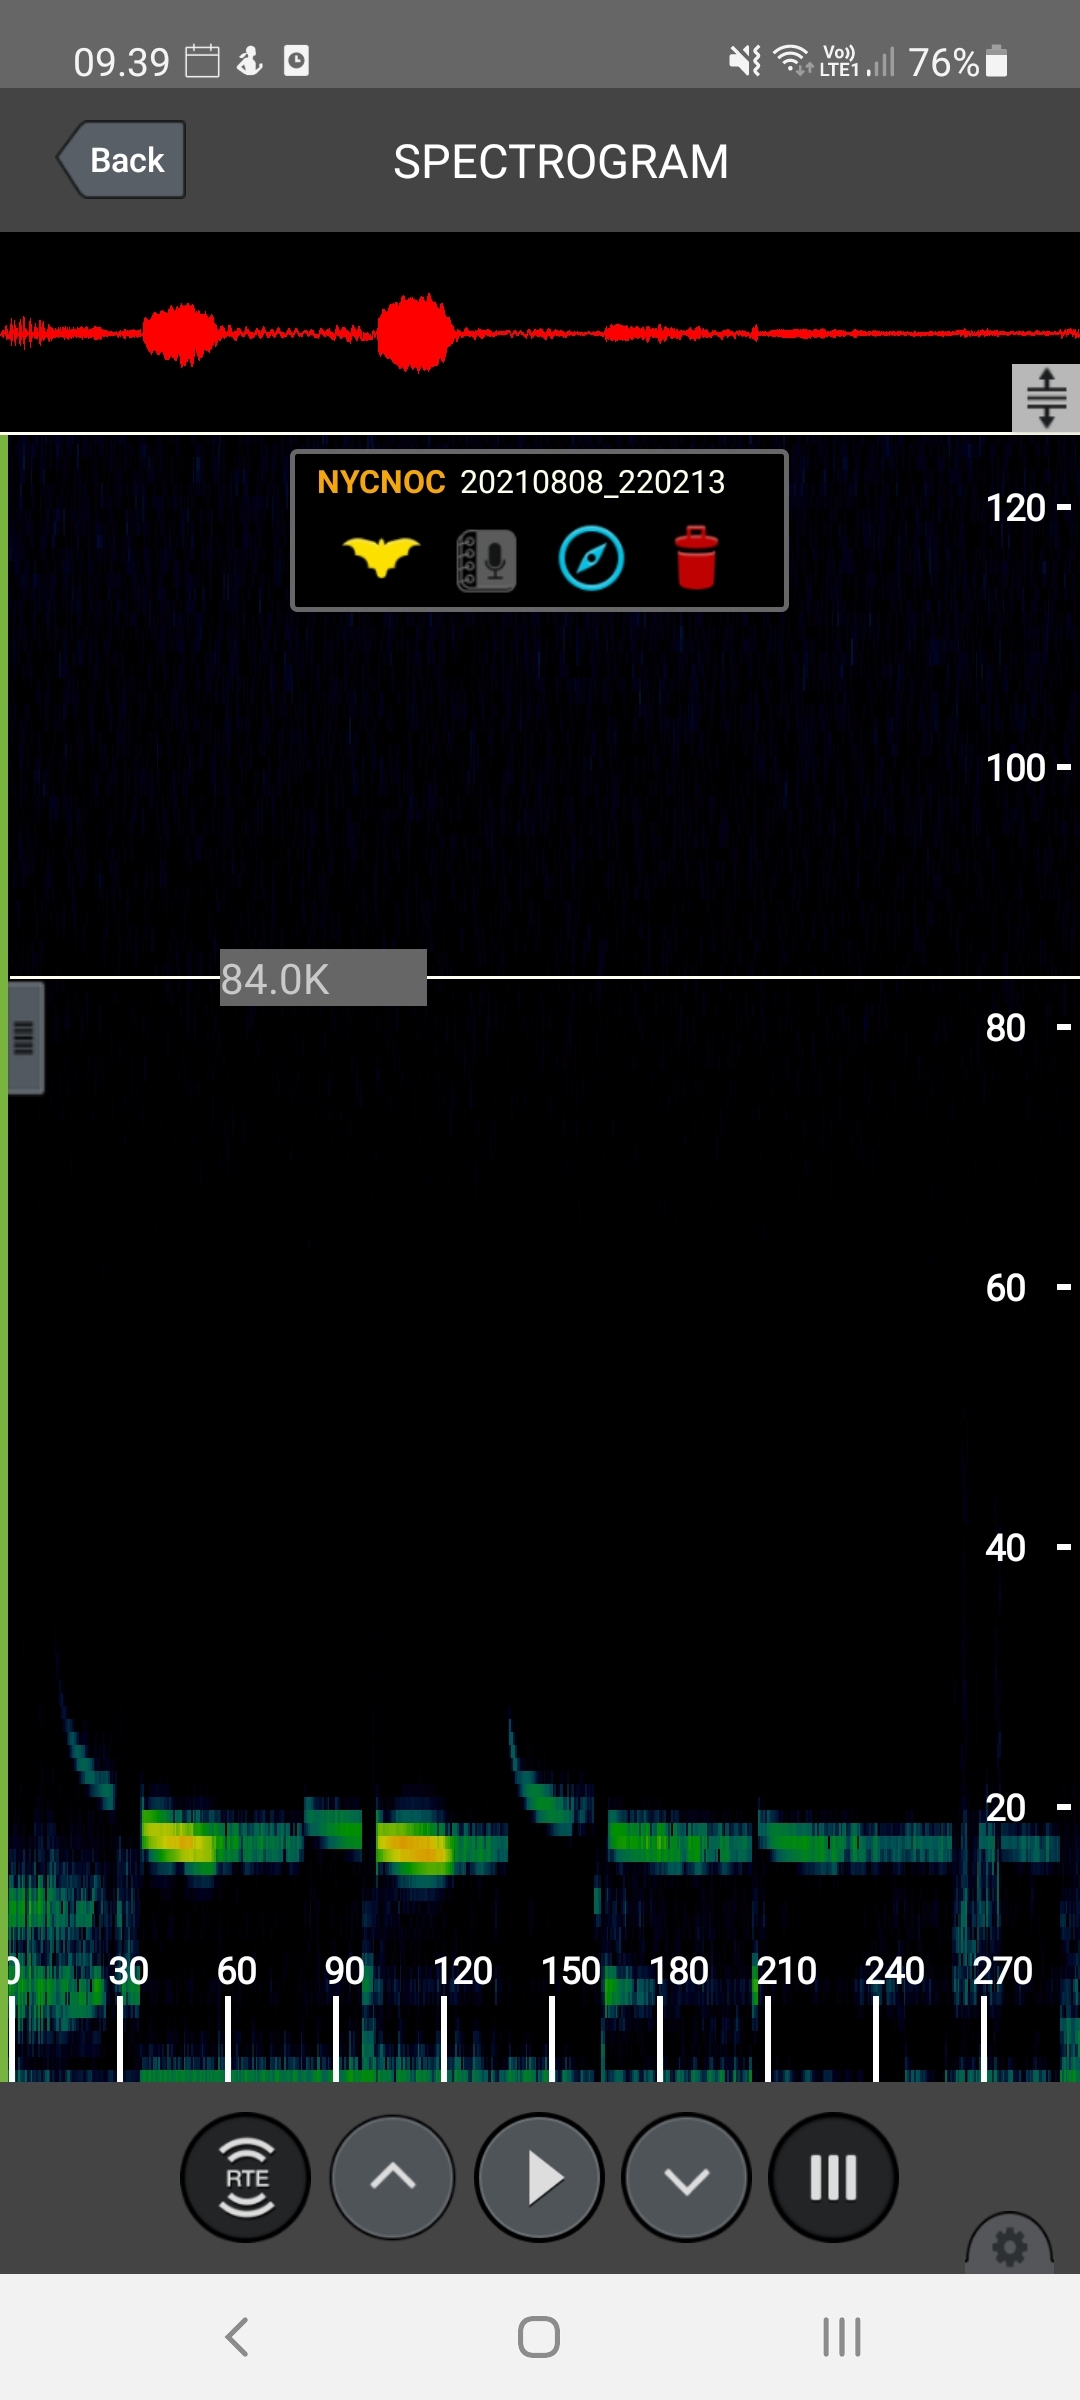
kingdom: Animalia
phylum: Chordata
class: Mammalia
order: Chiroptera
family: Vespertilionidae
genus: Nyctalus
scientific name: Nyctalus noctula
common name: Brunflagermus
